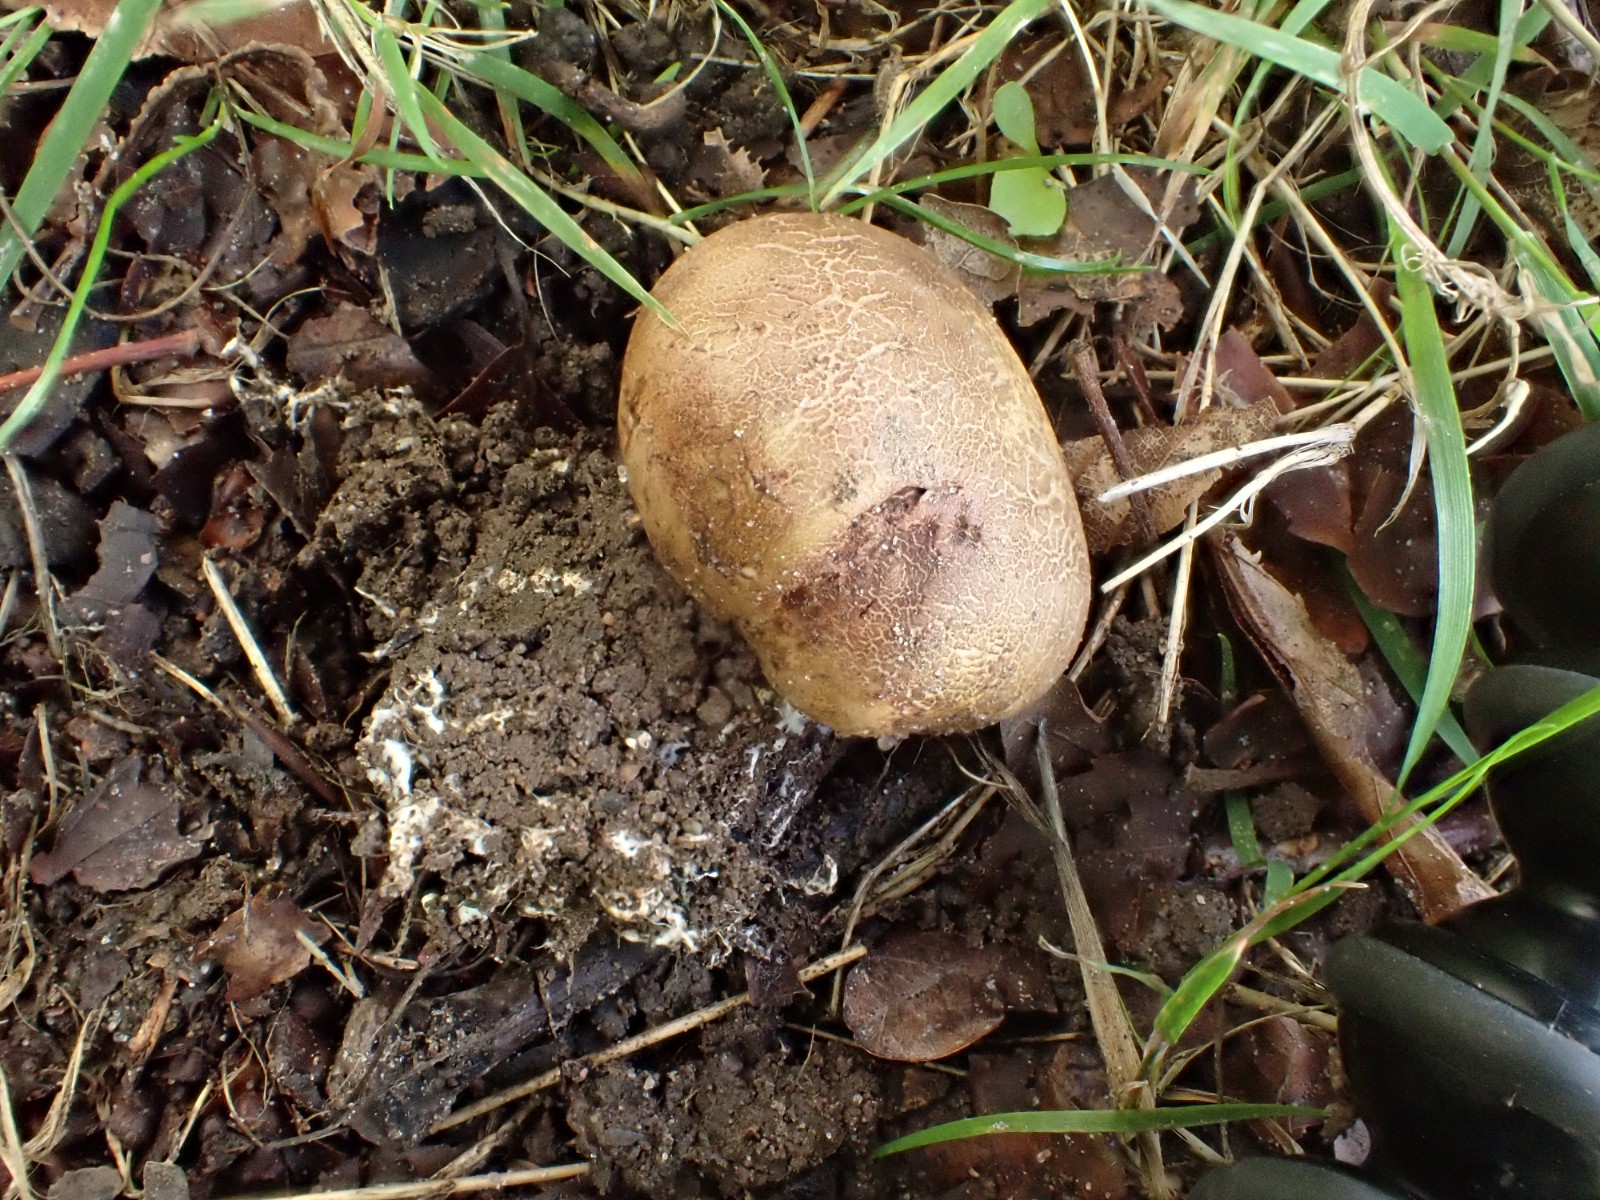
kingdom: Fungi
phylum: Basidiomycota
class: Agaricomycetes
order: Boletales
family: Sclerodermataceae
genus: Scleroderma
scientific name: Scleroderma verrucosum
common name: stilket bruskbold
